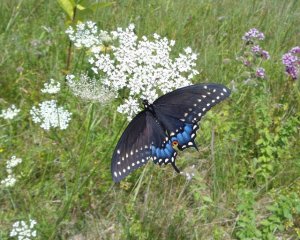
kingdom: Animalia
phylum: Arthropoda
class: Insecta
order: Lepidoptera
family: Papilionidae
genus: Papilio
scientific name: Papilio polyxenes
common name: Black Swallowtail
